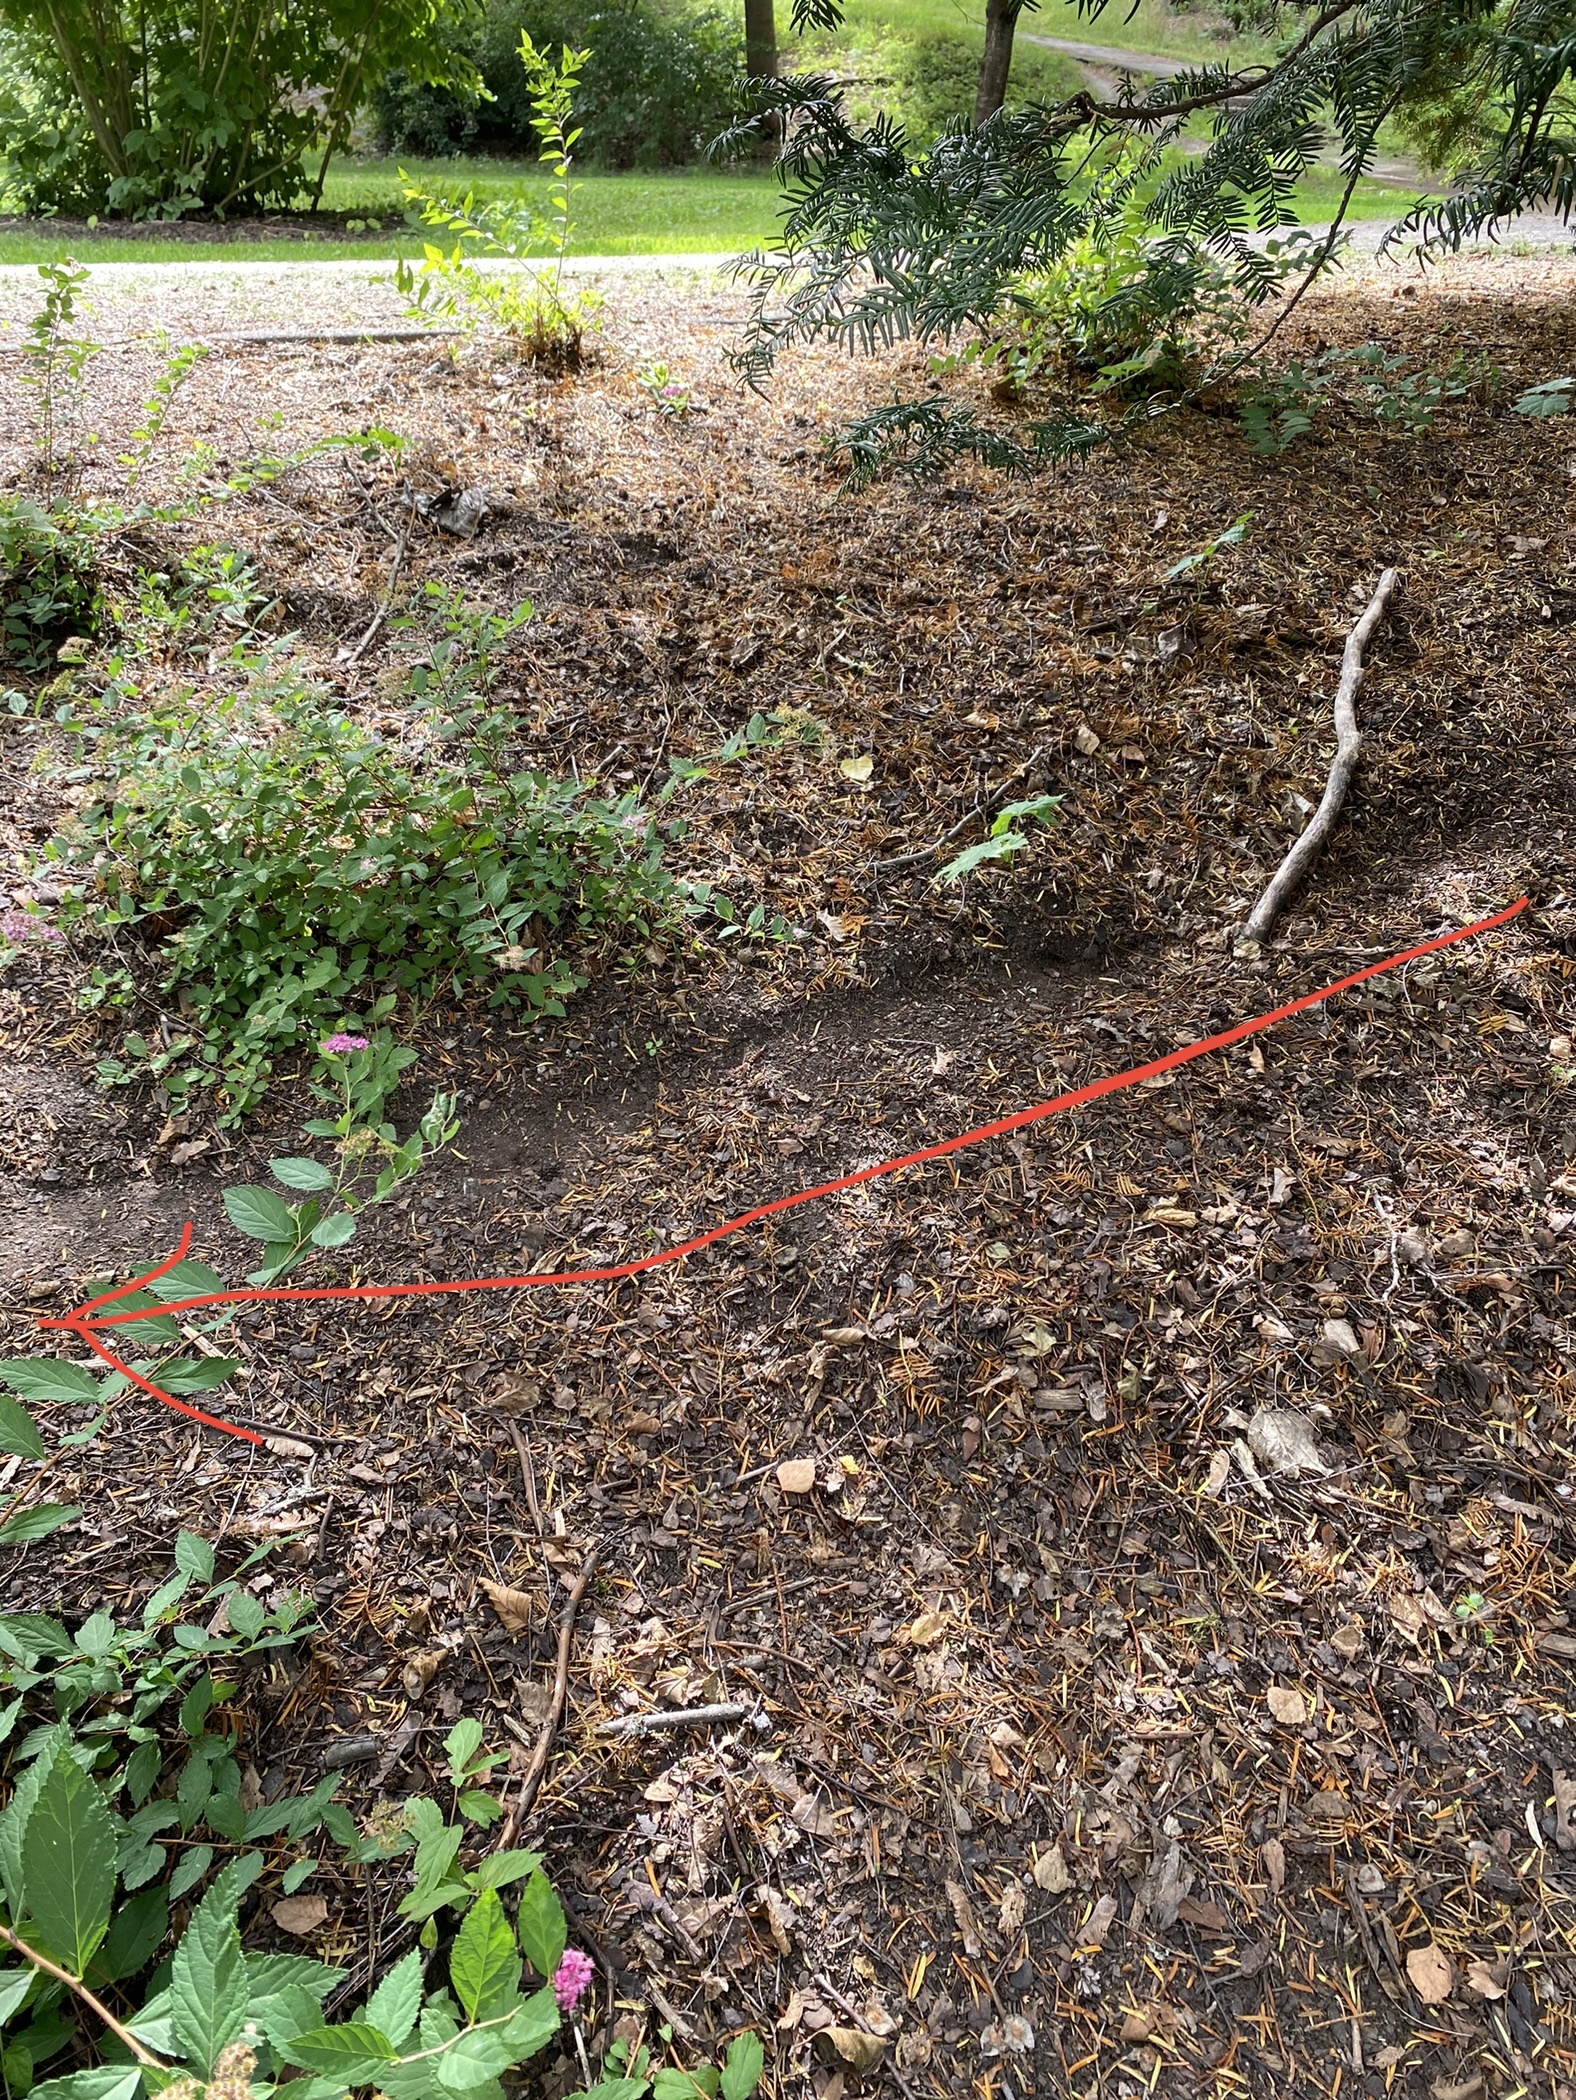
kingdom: Animalia
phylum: Chordata
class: Mammalia
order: Rodentia
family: Muridae
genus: Rattus
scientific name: Rattus norvegicus
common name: Brown rat
